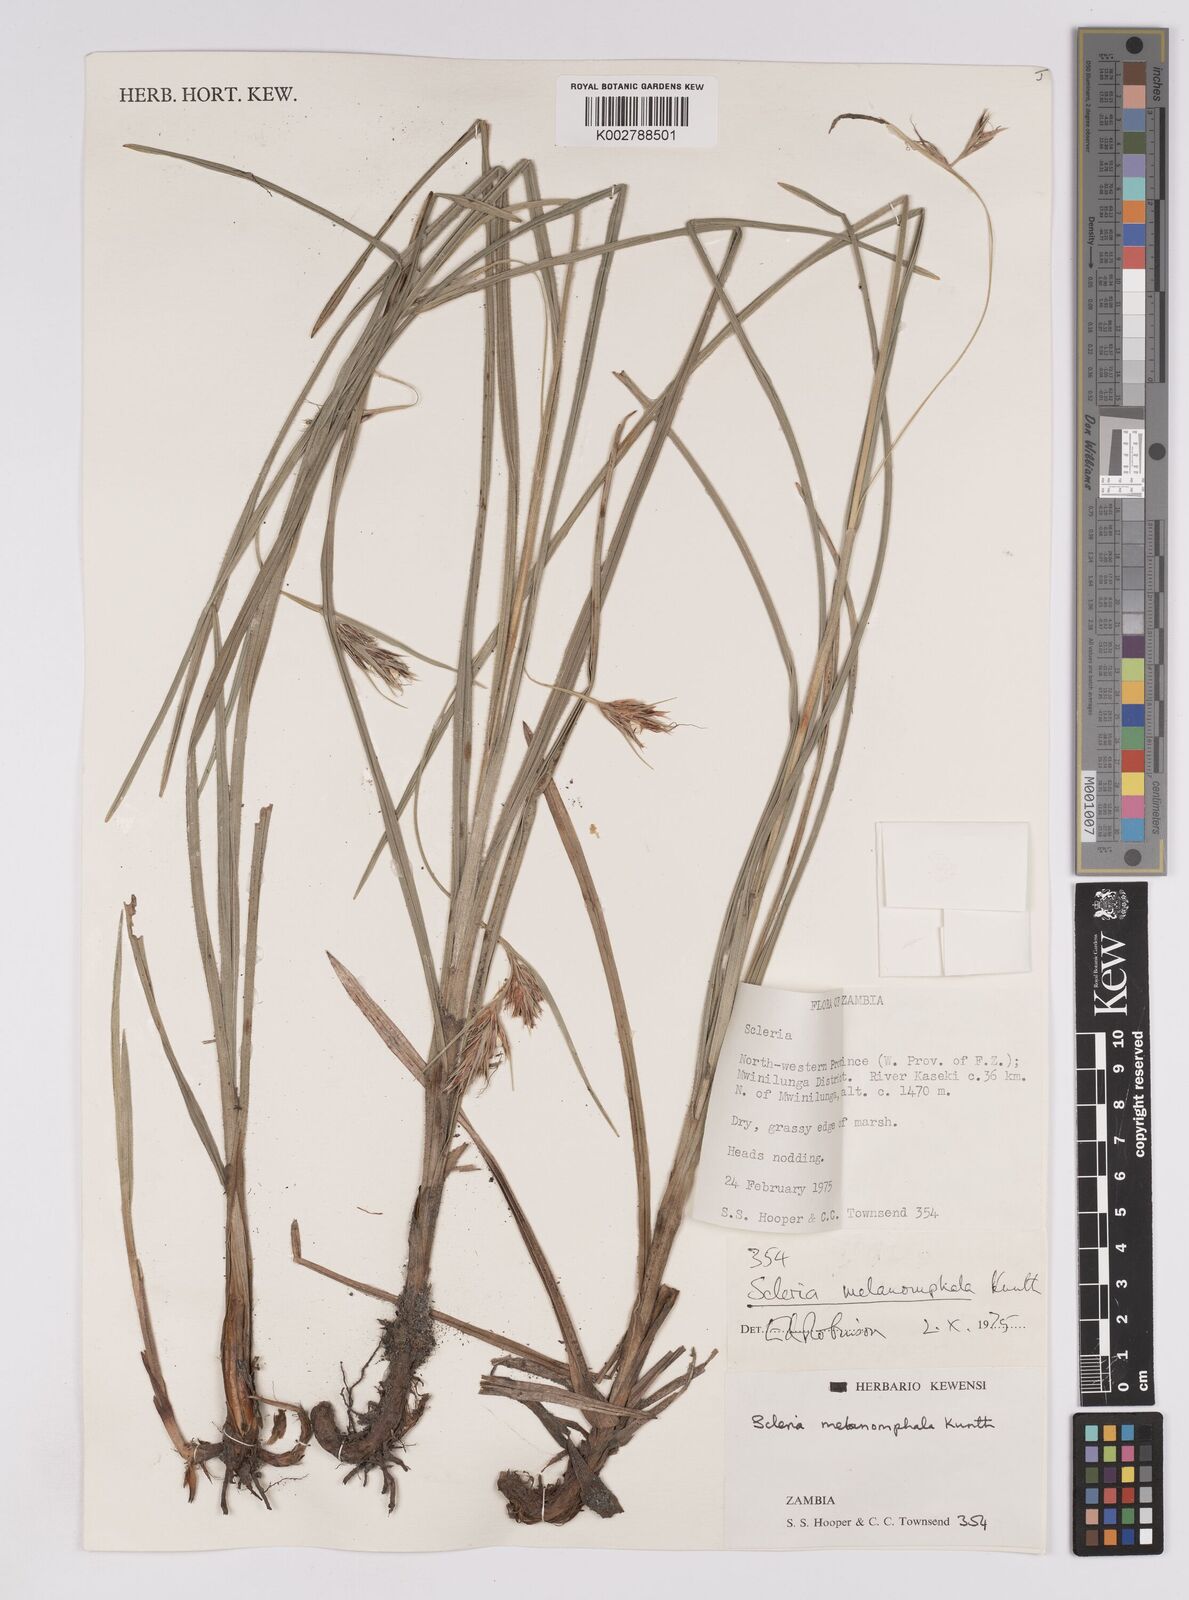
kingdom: Plantae
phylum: Tracheophyta
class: Liliopsida
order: Poales
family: Cyperaceae
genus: Scleria
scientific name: Scleria melanomphala
